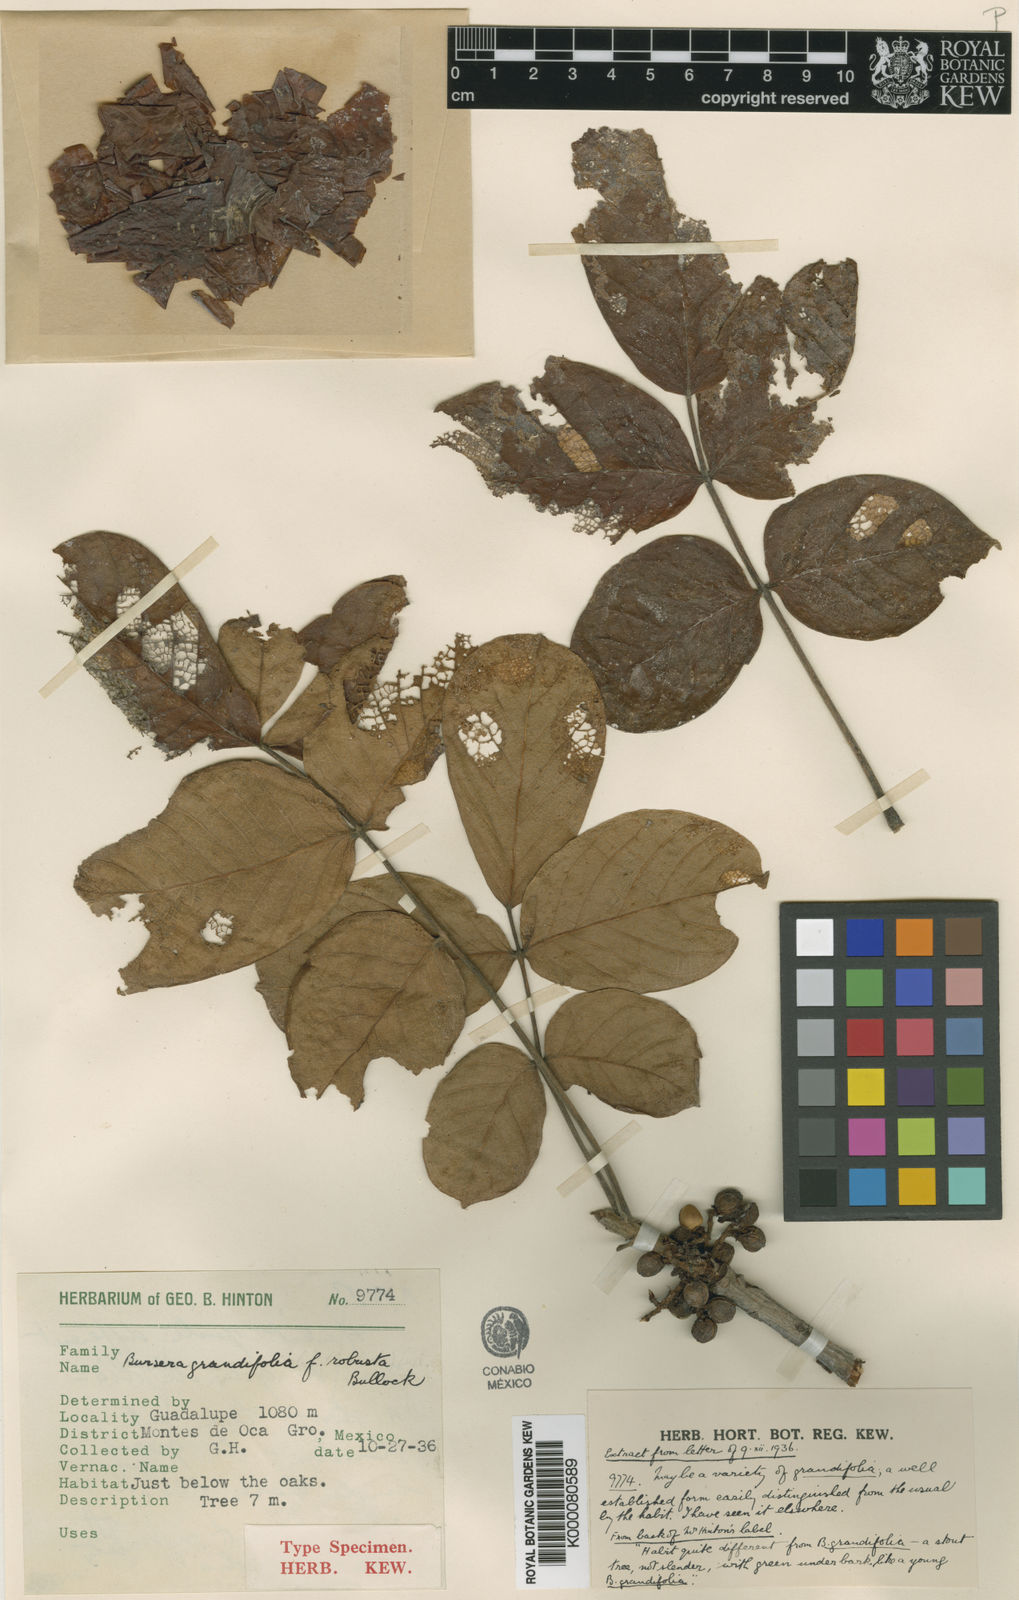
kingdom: Plantae
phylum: Tracheophyta
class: Magnoliopsida
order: Sapindales
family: Burseraceae
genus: Bursera
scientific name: Bursera grandifolia
